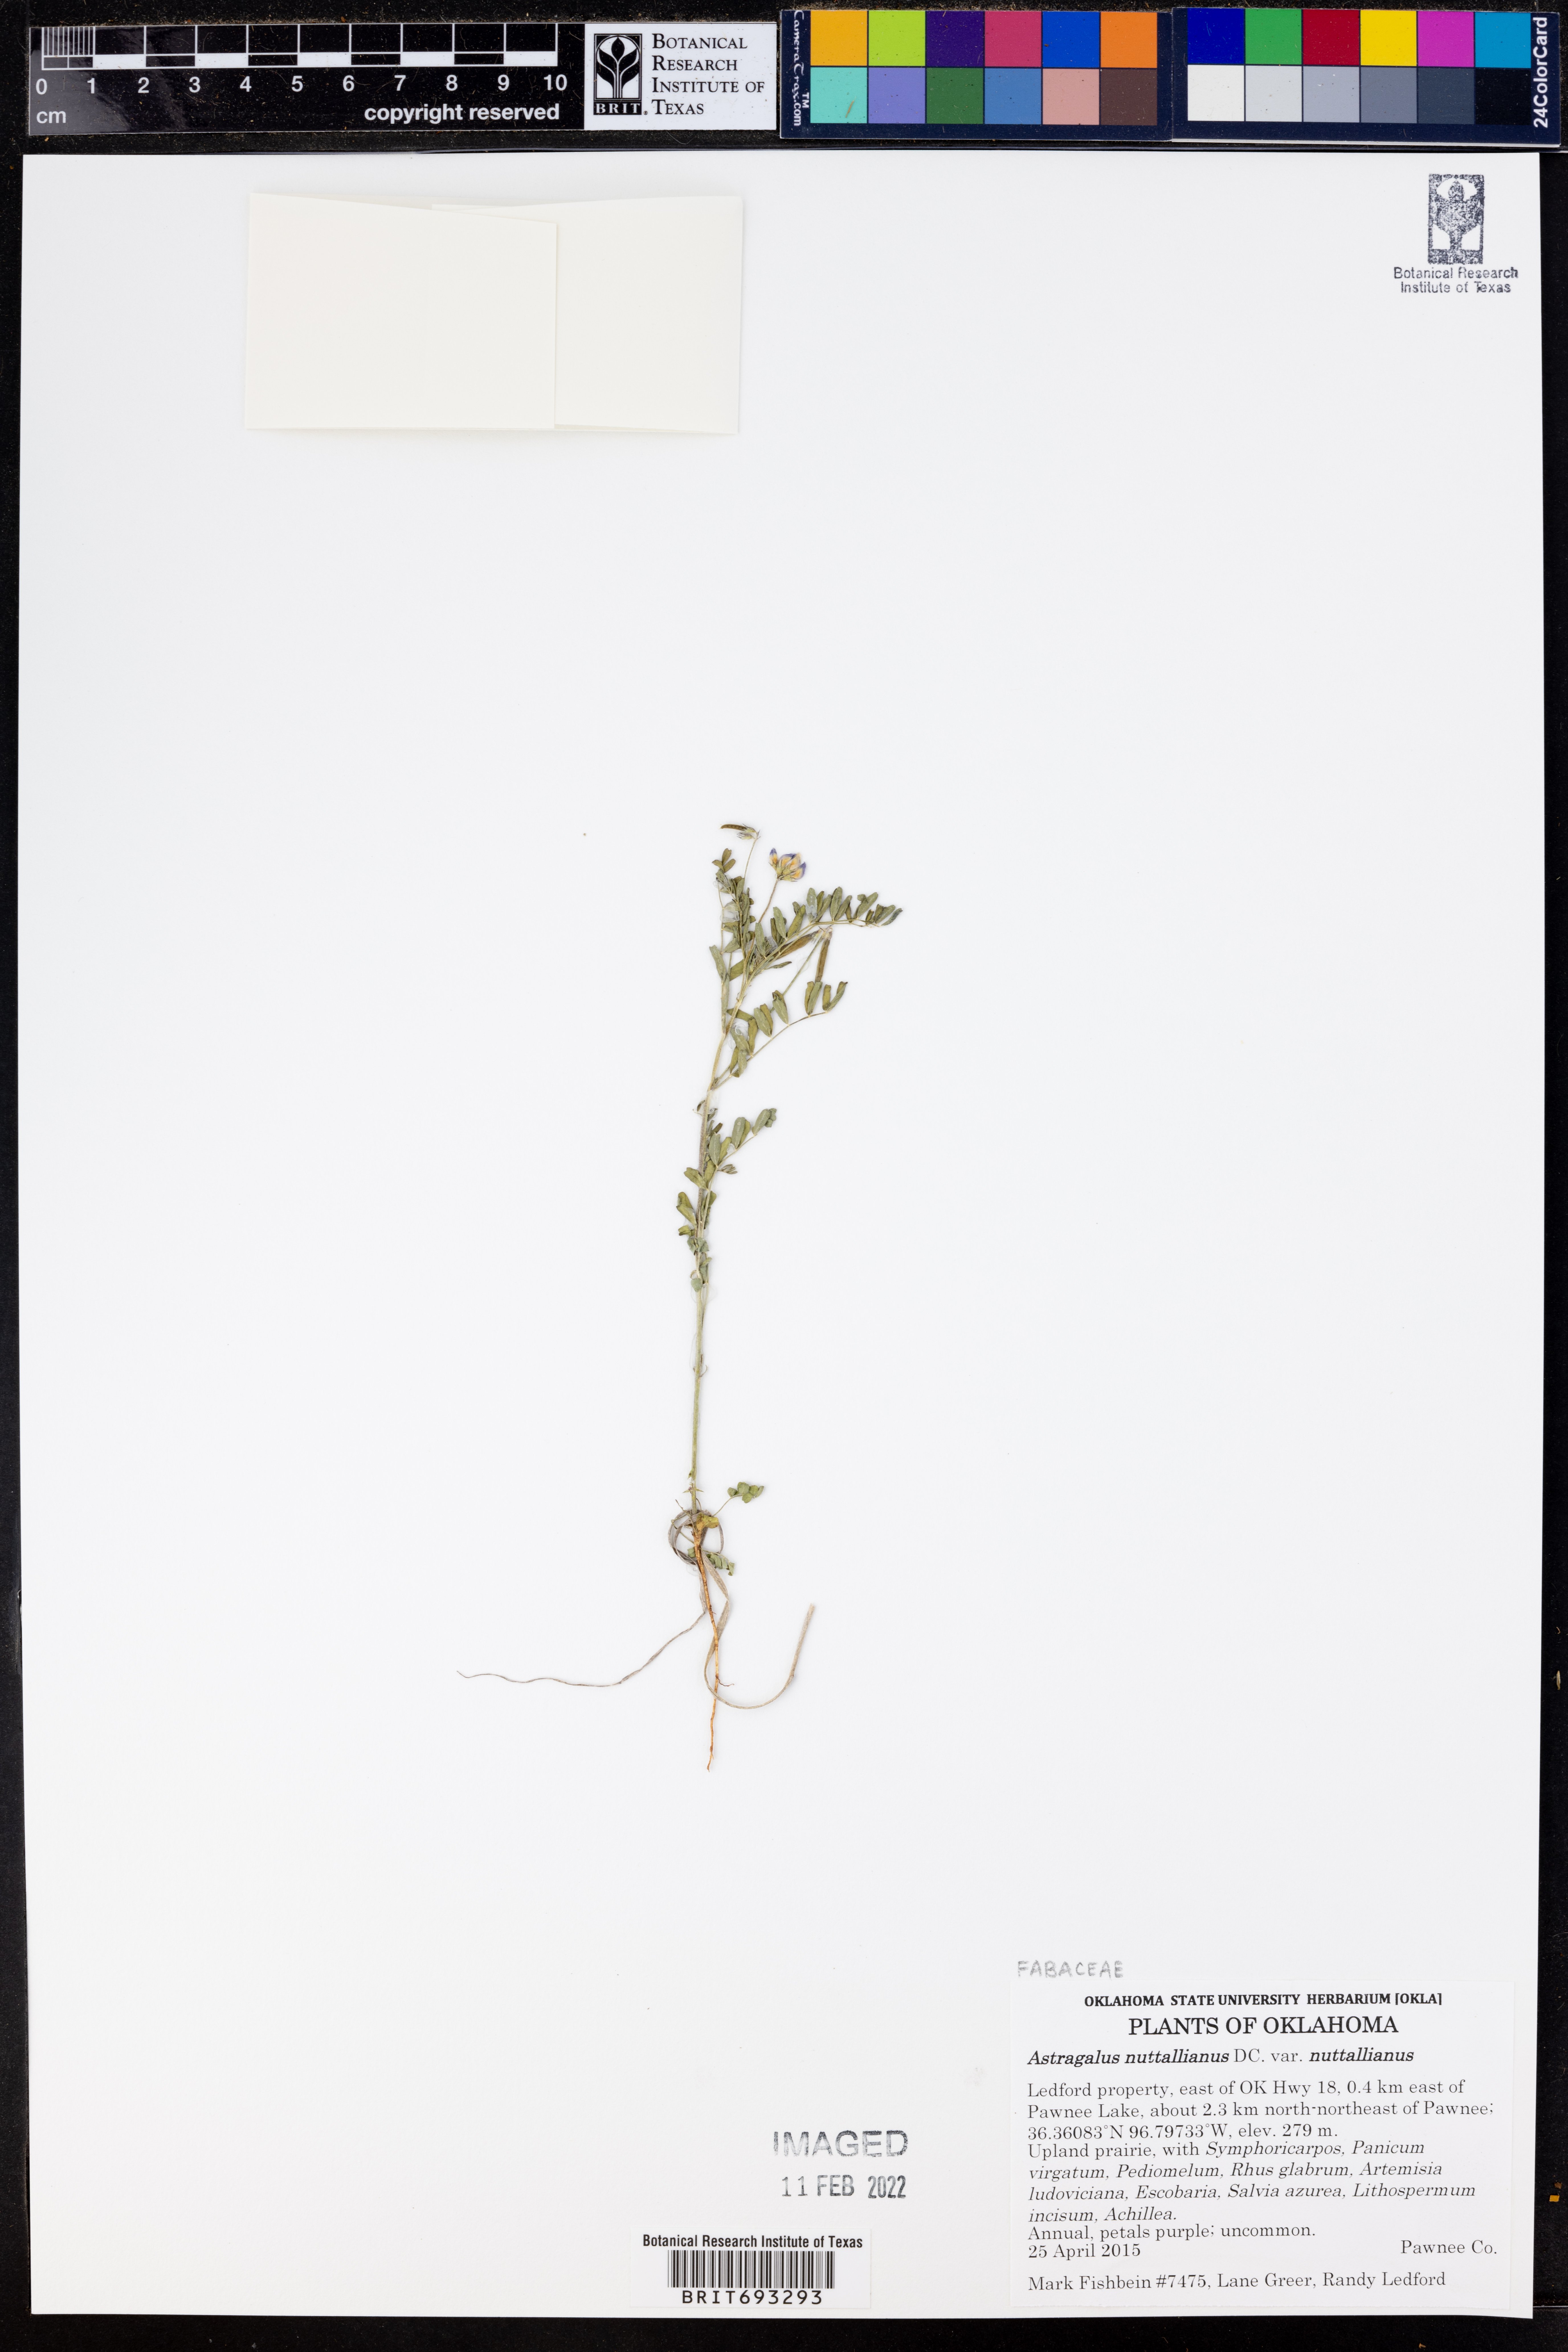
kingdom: Plantae
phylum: Tracheophyta
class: Magnoliopsida
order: Fabales
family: Fabaceae
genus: Astragalus
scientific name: Astragalus nuttallianus
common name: Smallflowered milkvetch
